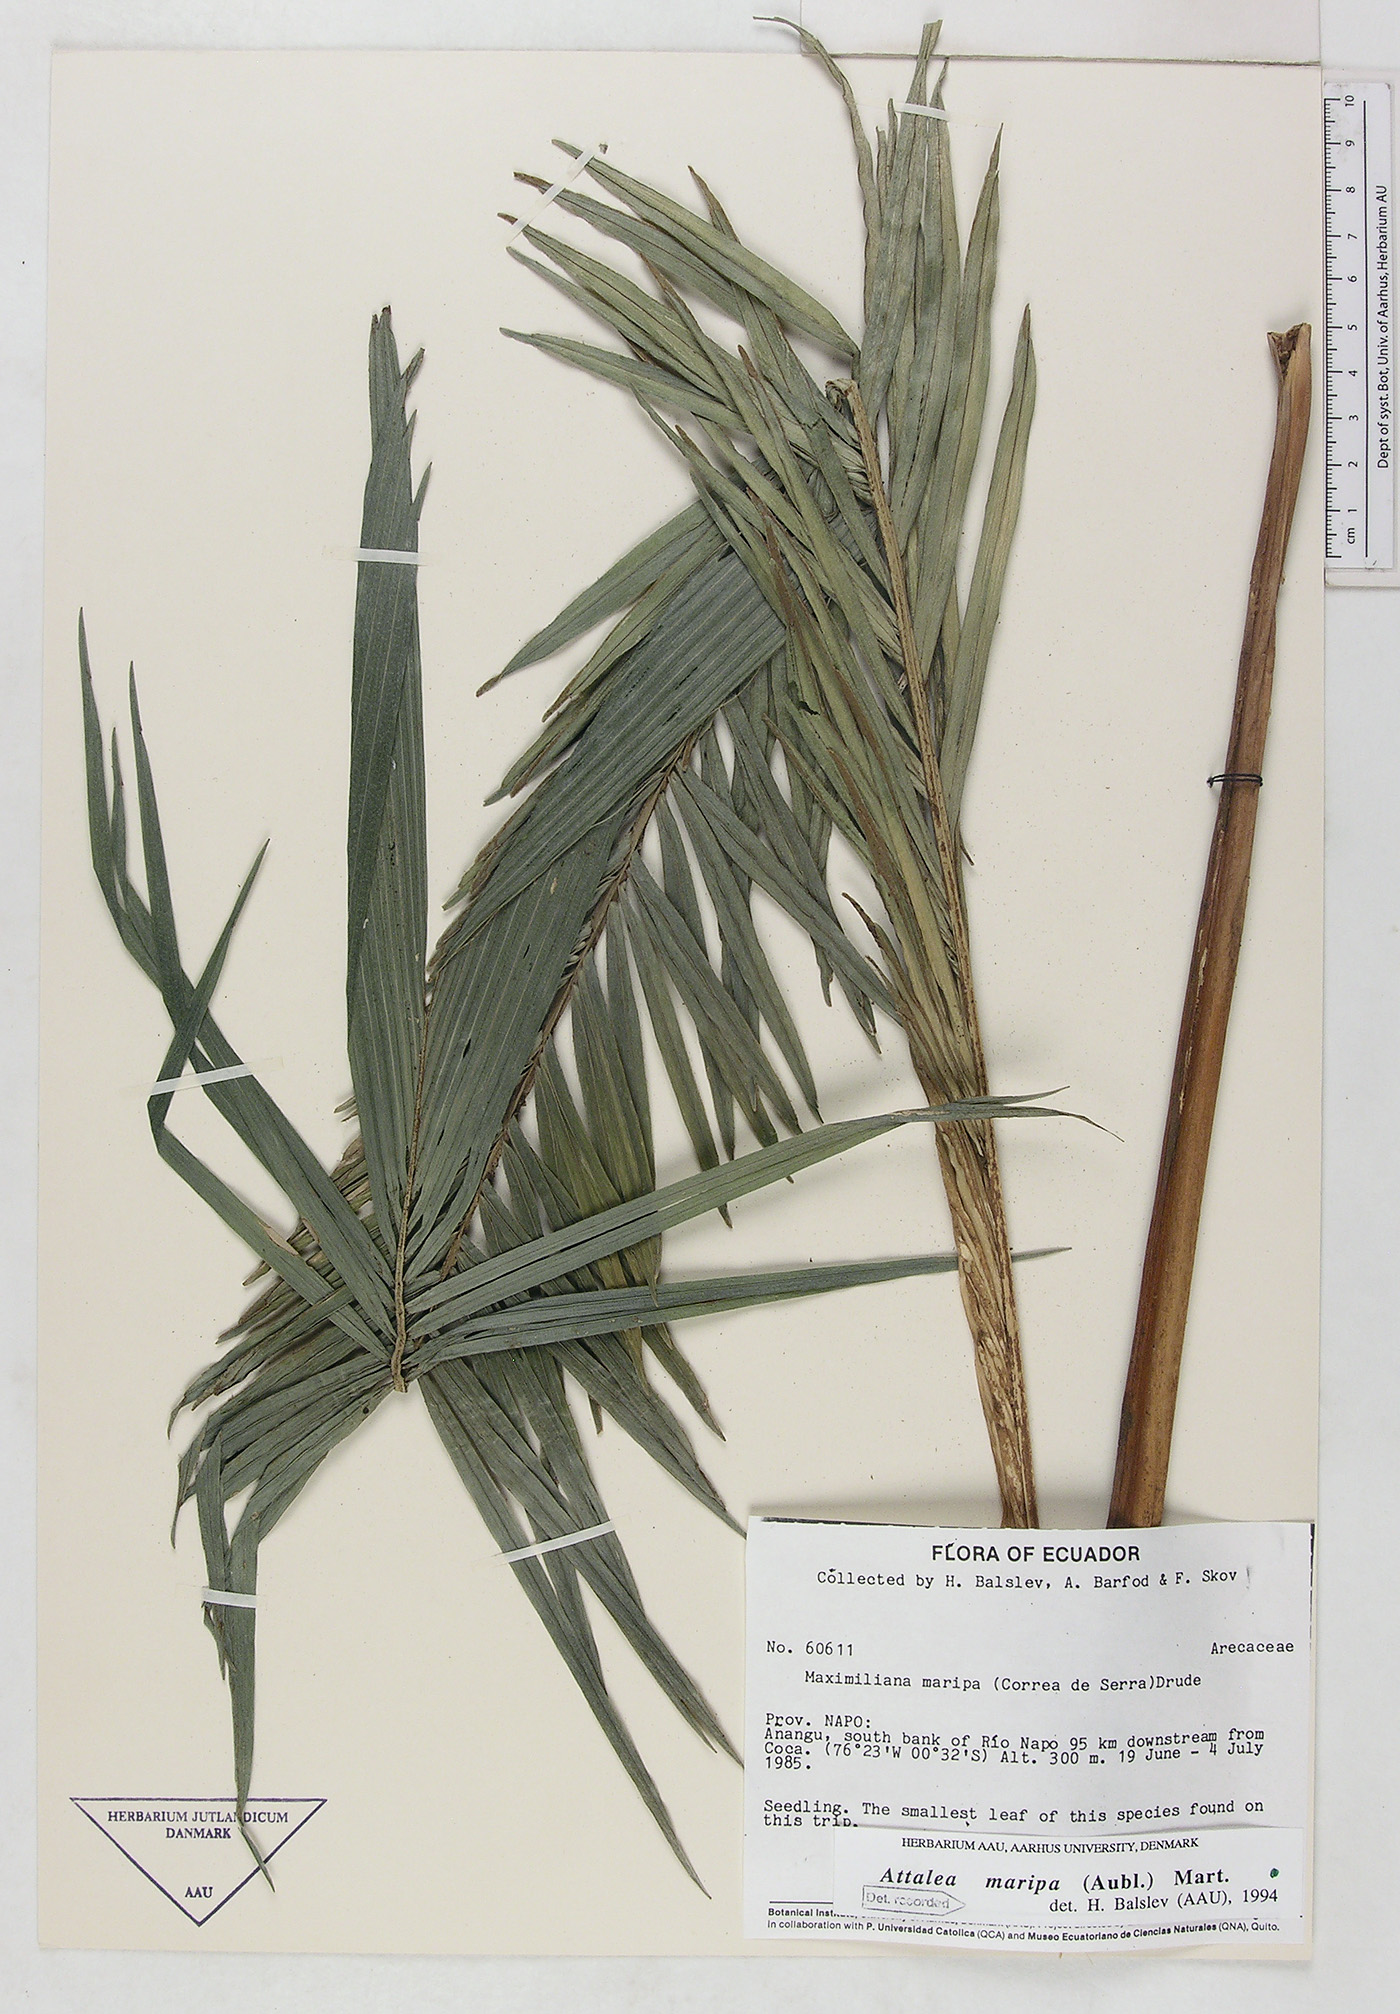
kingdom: Plantae
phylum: Tracheophyta
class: Liliopsida
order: Arecales
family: Arecaceae
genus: Attalea
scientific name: Attalea maripa
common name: Maripa palm
